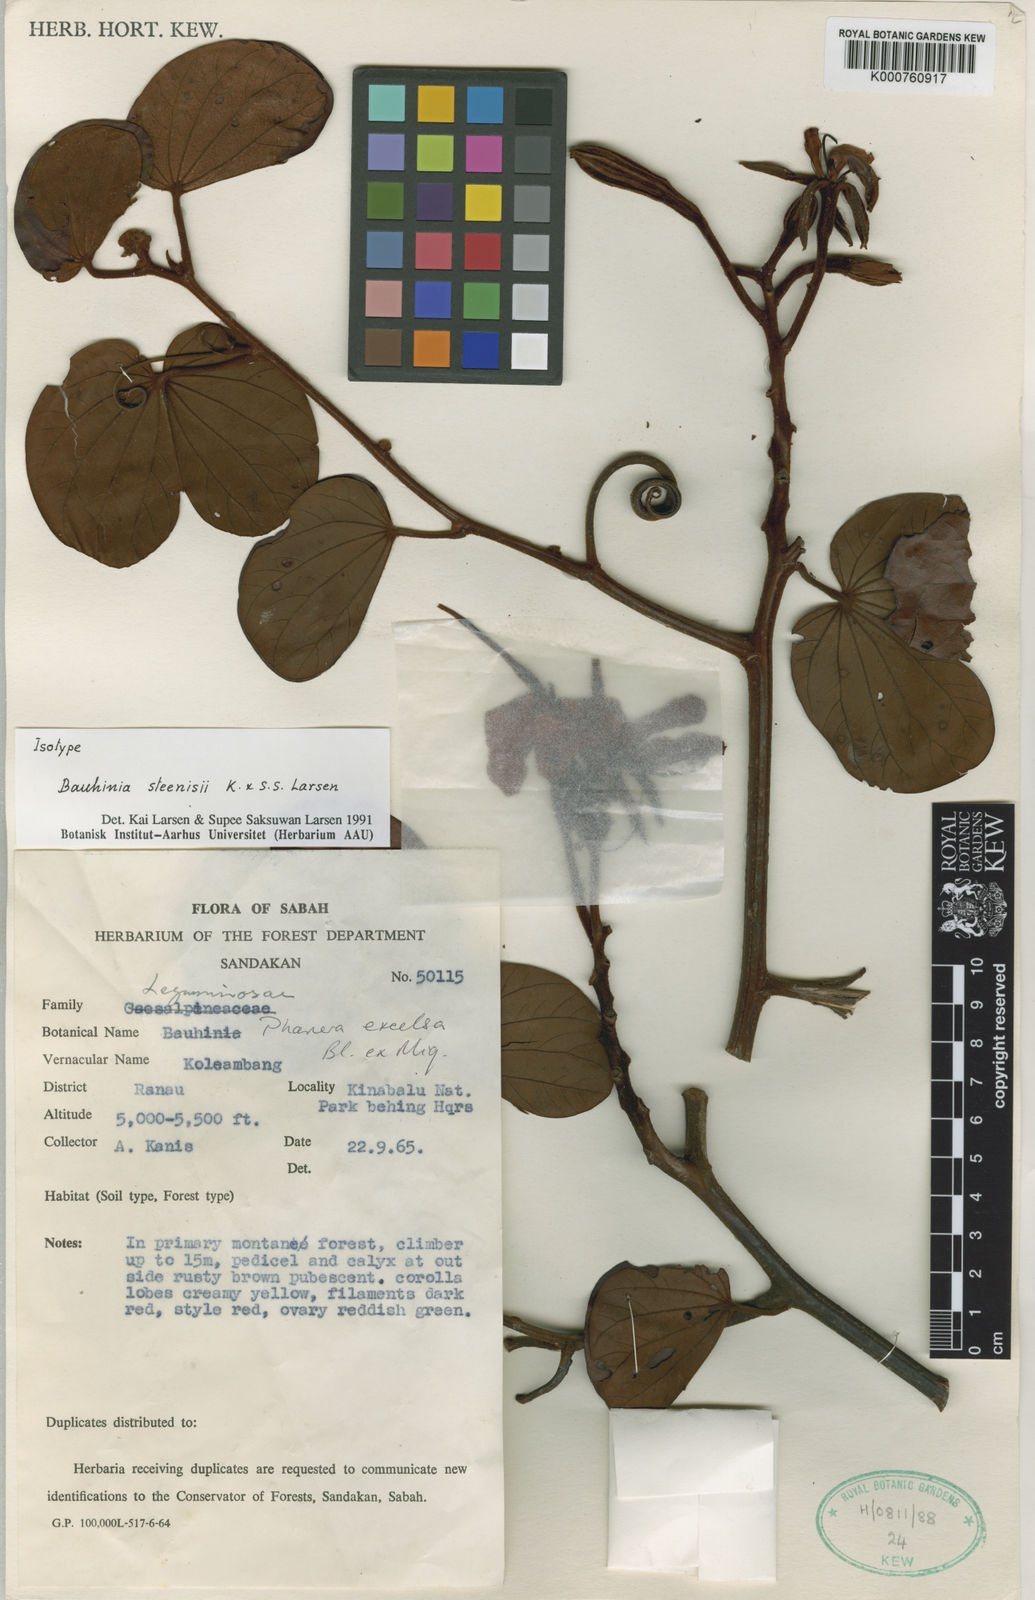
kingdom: Plantae
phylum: Tracheophyta
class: Magnoliopsida
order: Fabales
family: Fabaceae
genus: Bauhinia
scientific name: Bauhinia
